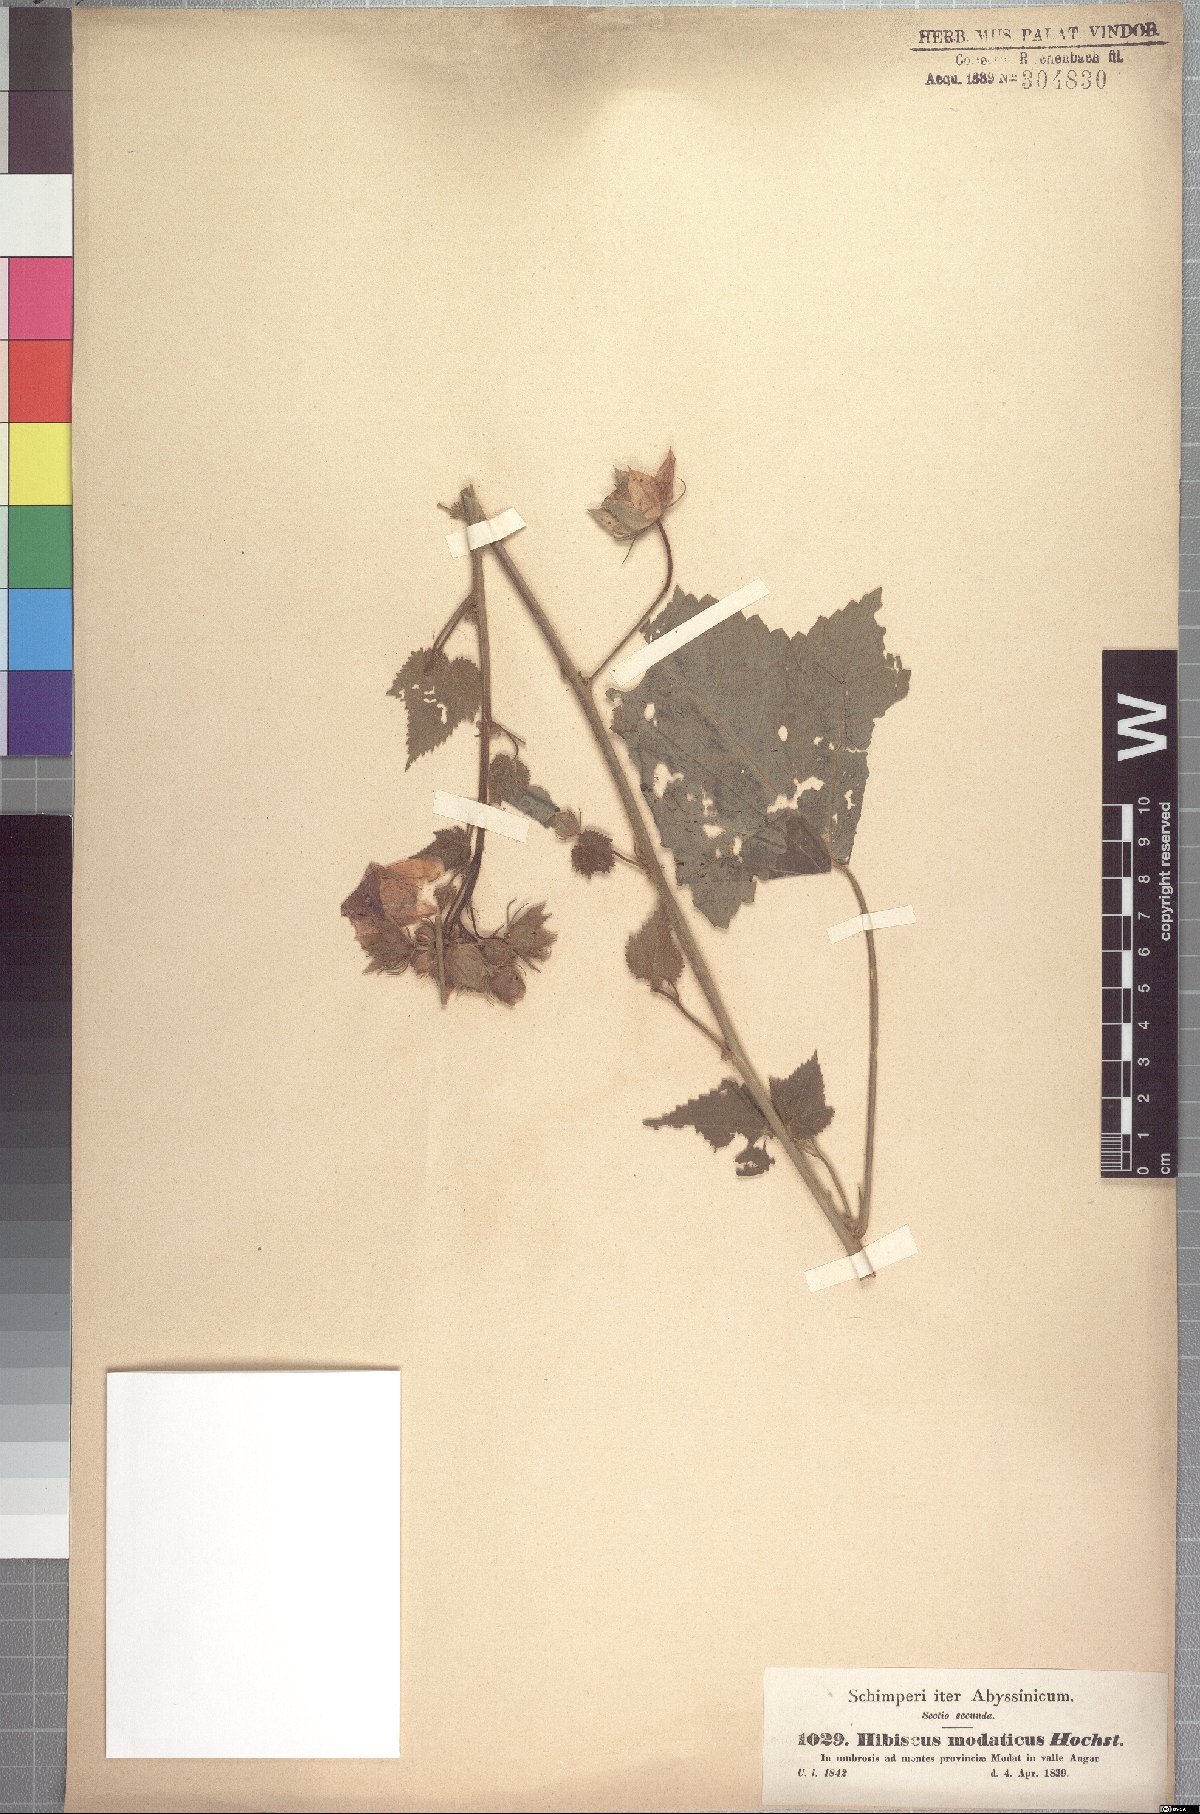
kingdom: Plantae
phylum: Tracheophyta
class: Magnoliopsida
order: Malvales
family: Malvaceae
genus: Hibiscus
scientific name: Hibiscus vitifolius
